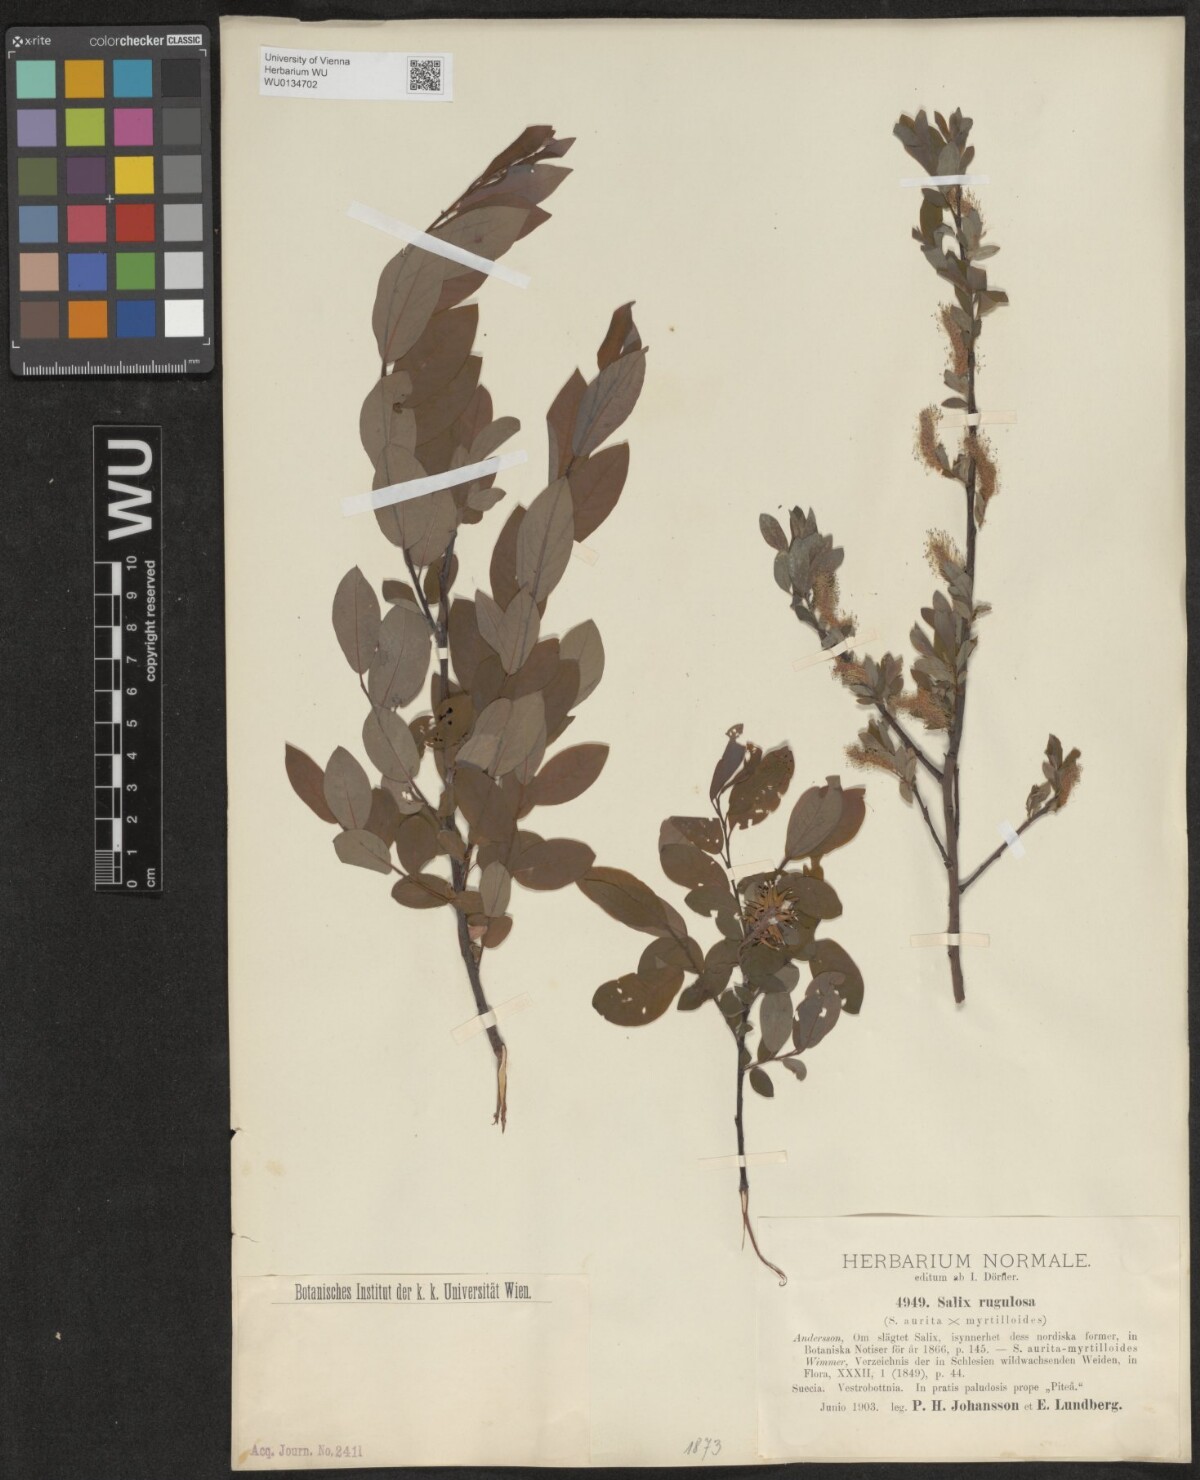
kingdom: Plantae
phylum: Tracheophyta
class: Magnoliopsida
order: Malpighiales
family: Salicaceae
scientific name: Salicaceae
